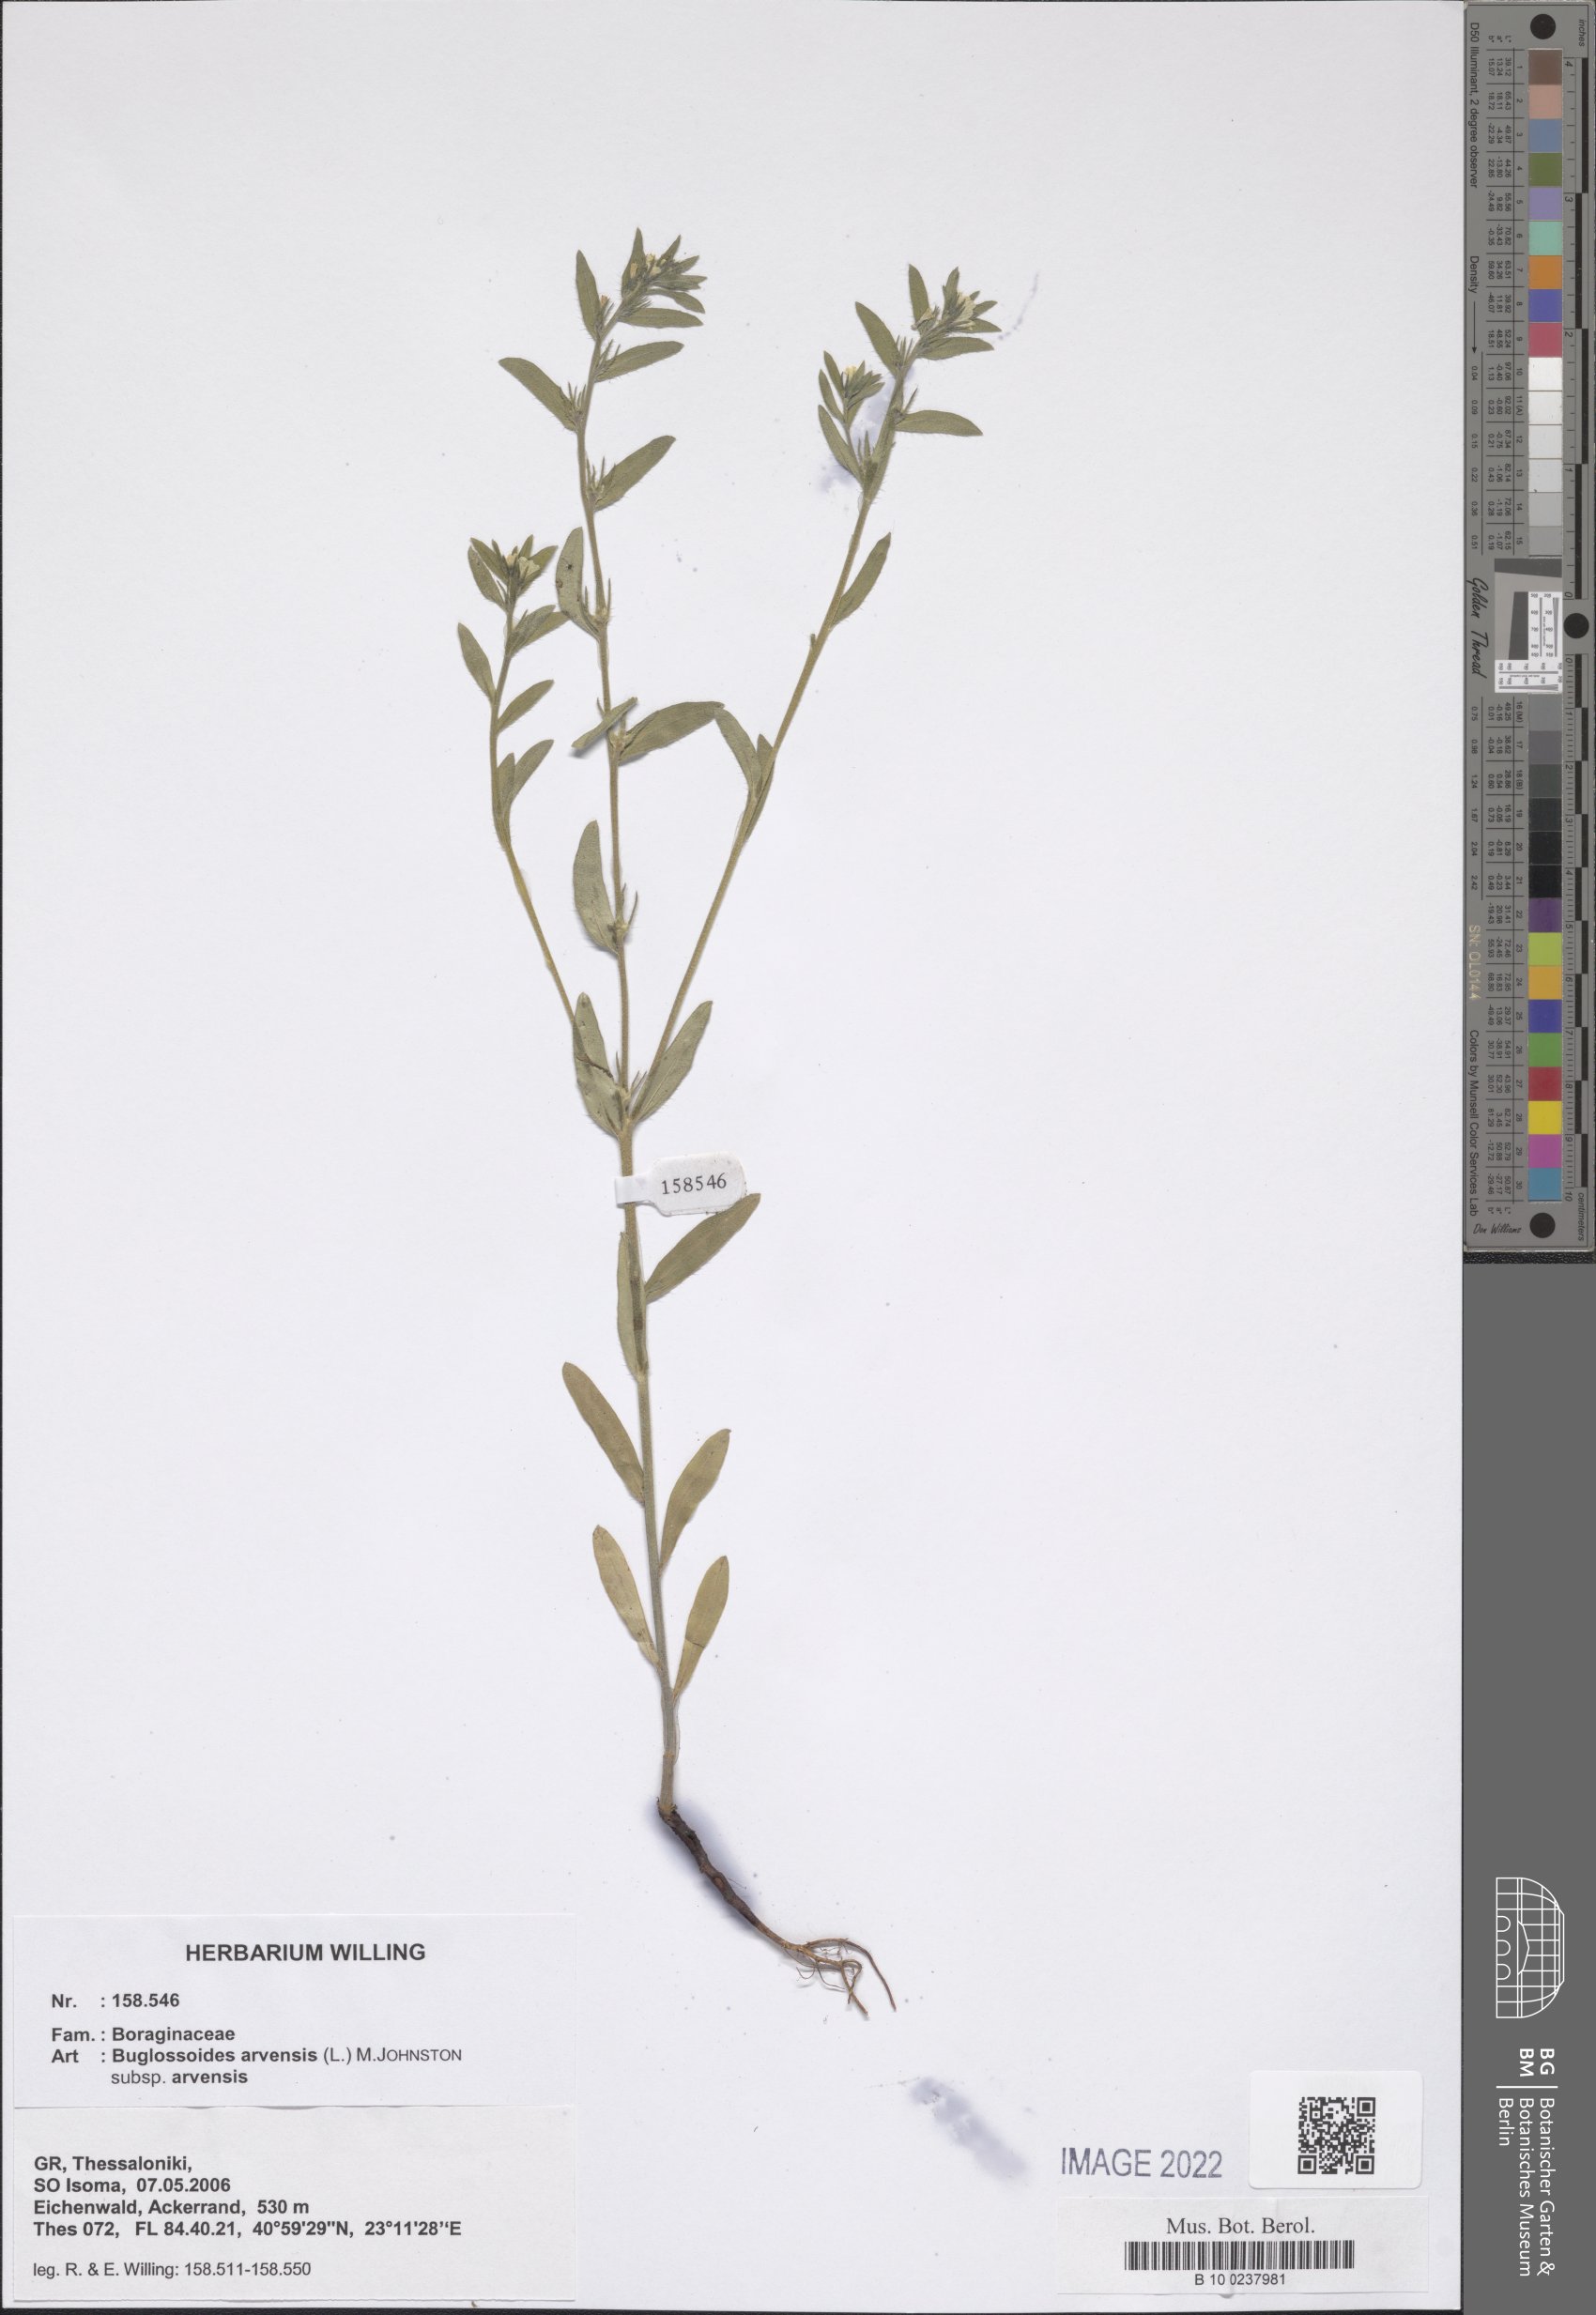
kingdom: Plantae
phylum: Tracheophyta
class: Magnoliopsida
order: Boraginales
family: Boraginaceae
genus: Buglossoides
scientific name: Buglossoides arvensis
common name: Corn gromwell
